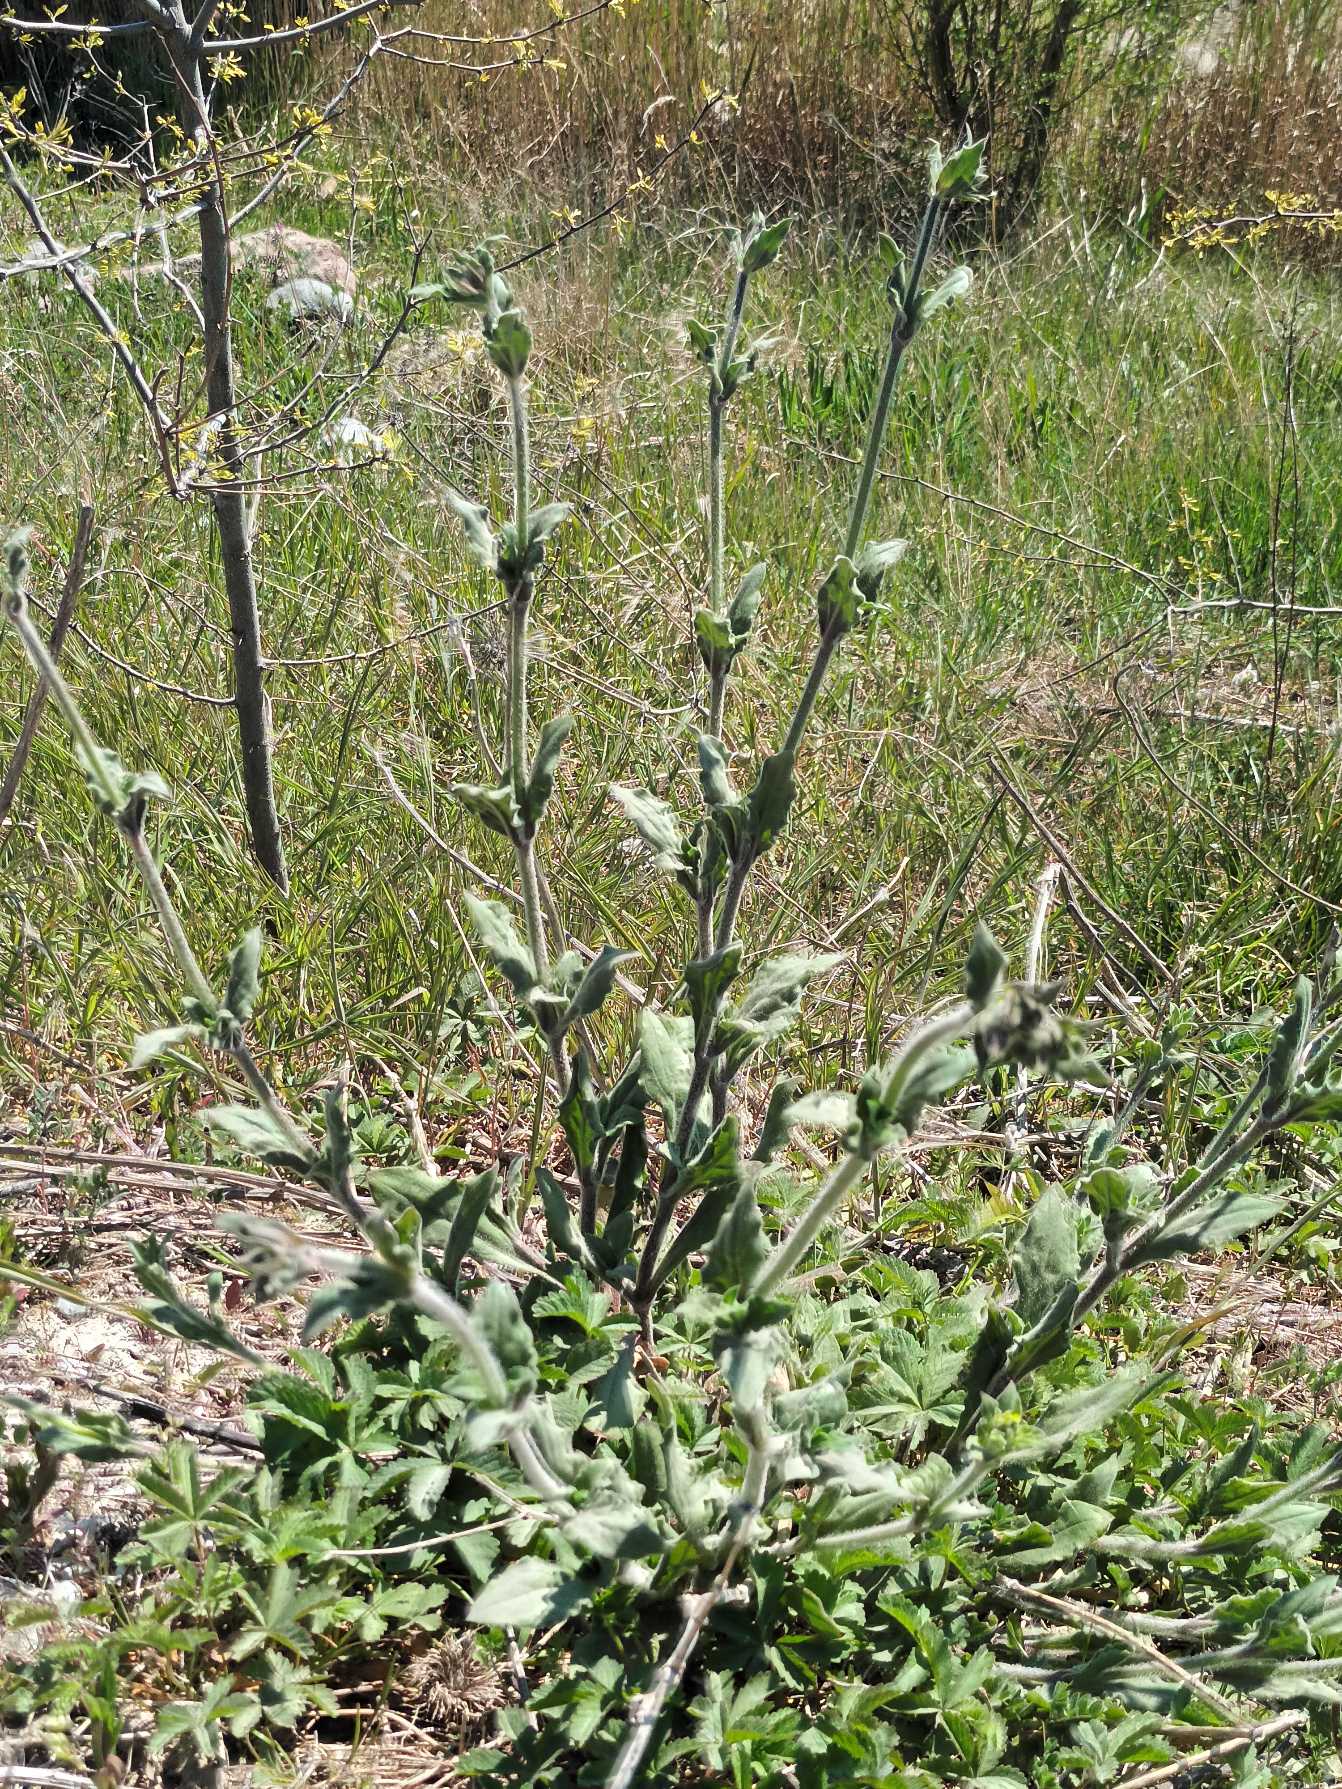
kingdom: Plantae
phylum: Tracheophyta
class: Magnoliopsida
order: Caryophyllales
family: Caryophyllaceae
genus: Silene
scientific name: Silene dioica
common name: Dagpragtstjerne
